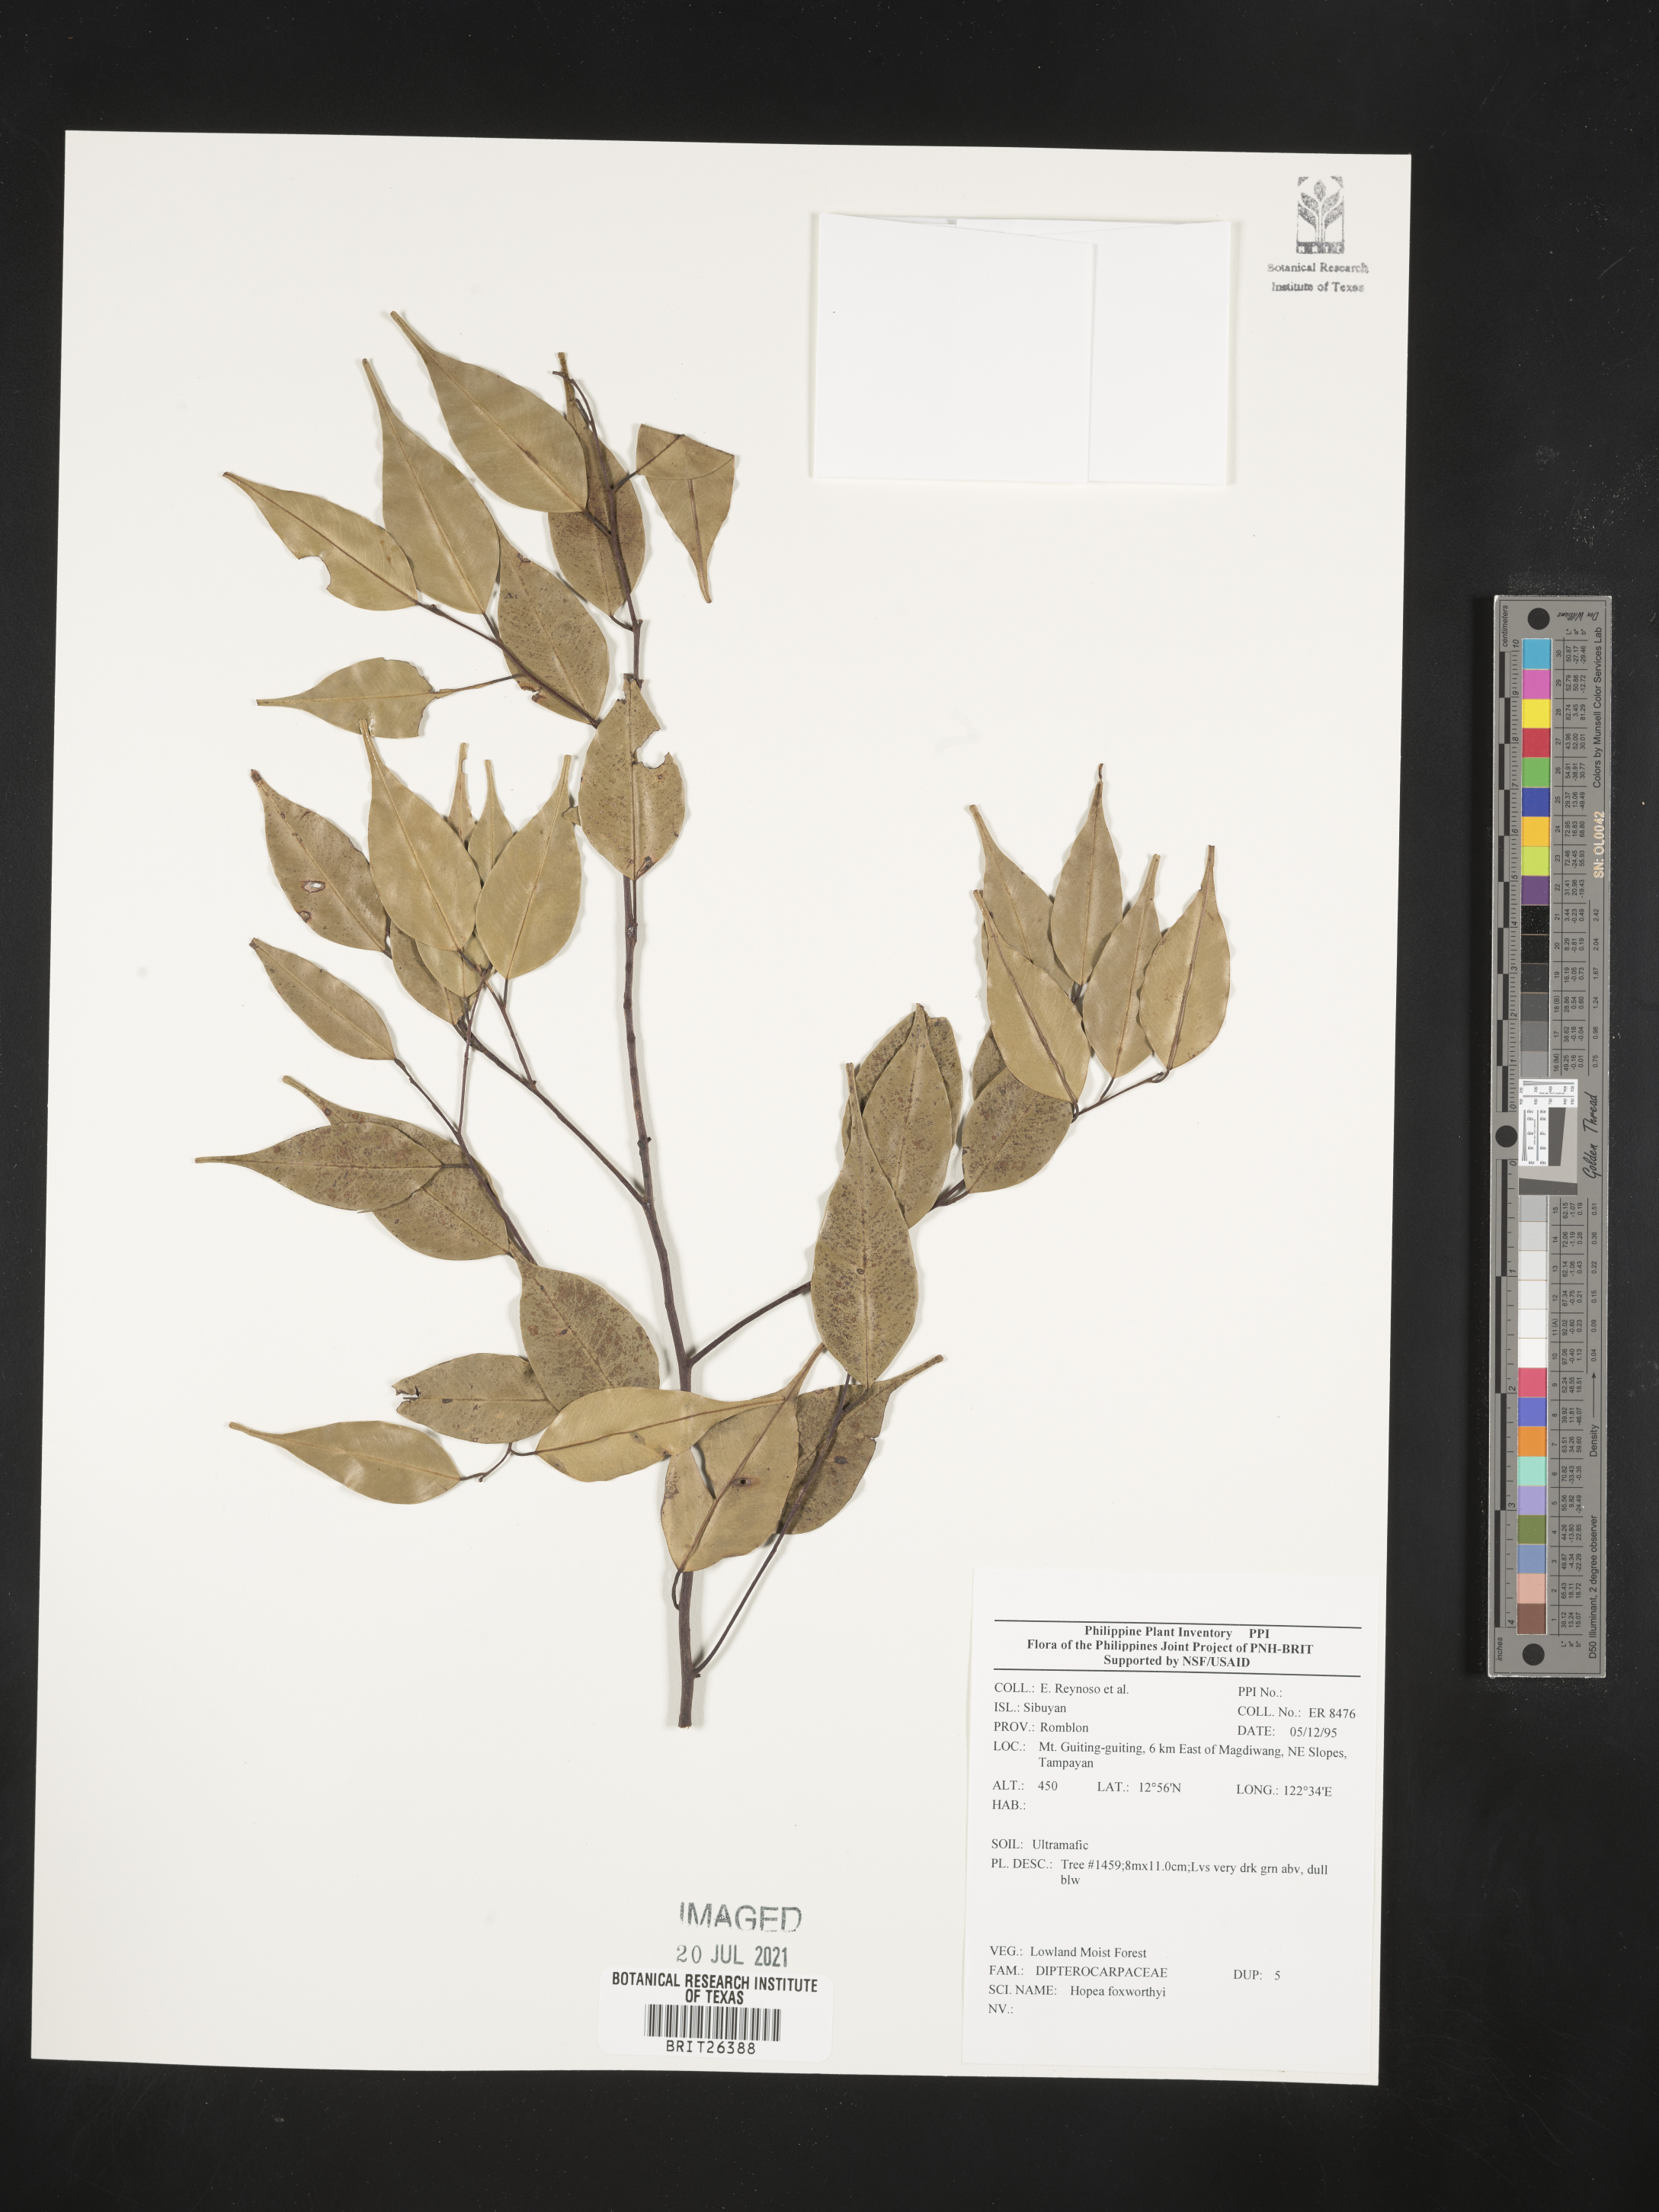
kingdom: Plantae
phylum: Tracheophyta
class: Magnoliopsida
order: Malvales
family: Dipterocarpaceae
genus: Hopea
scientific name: Hopea foxworthyi
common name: Dalingdingan
